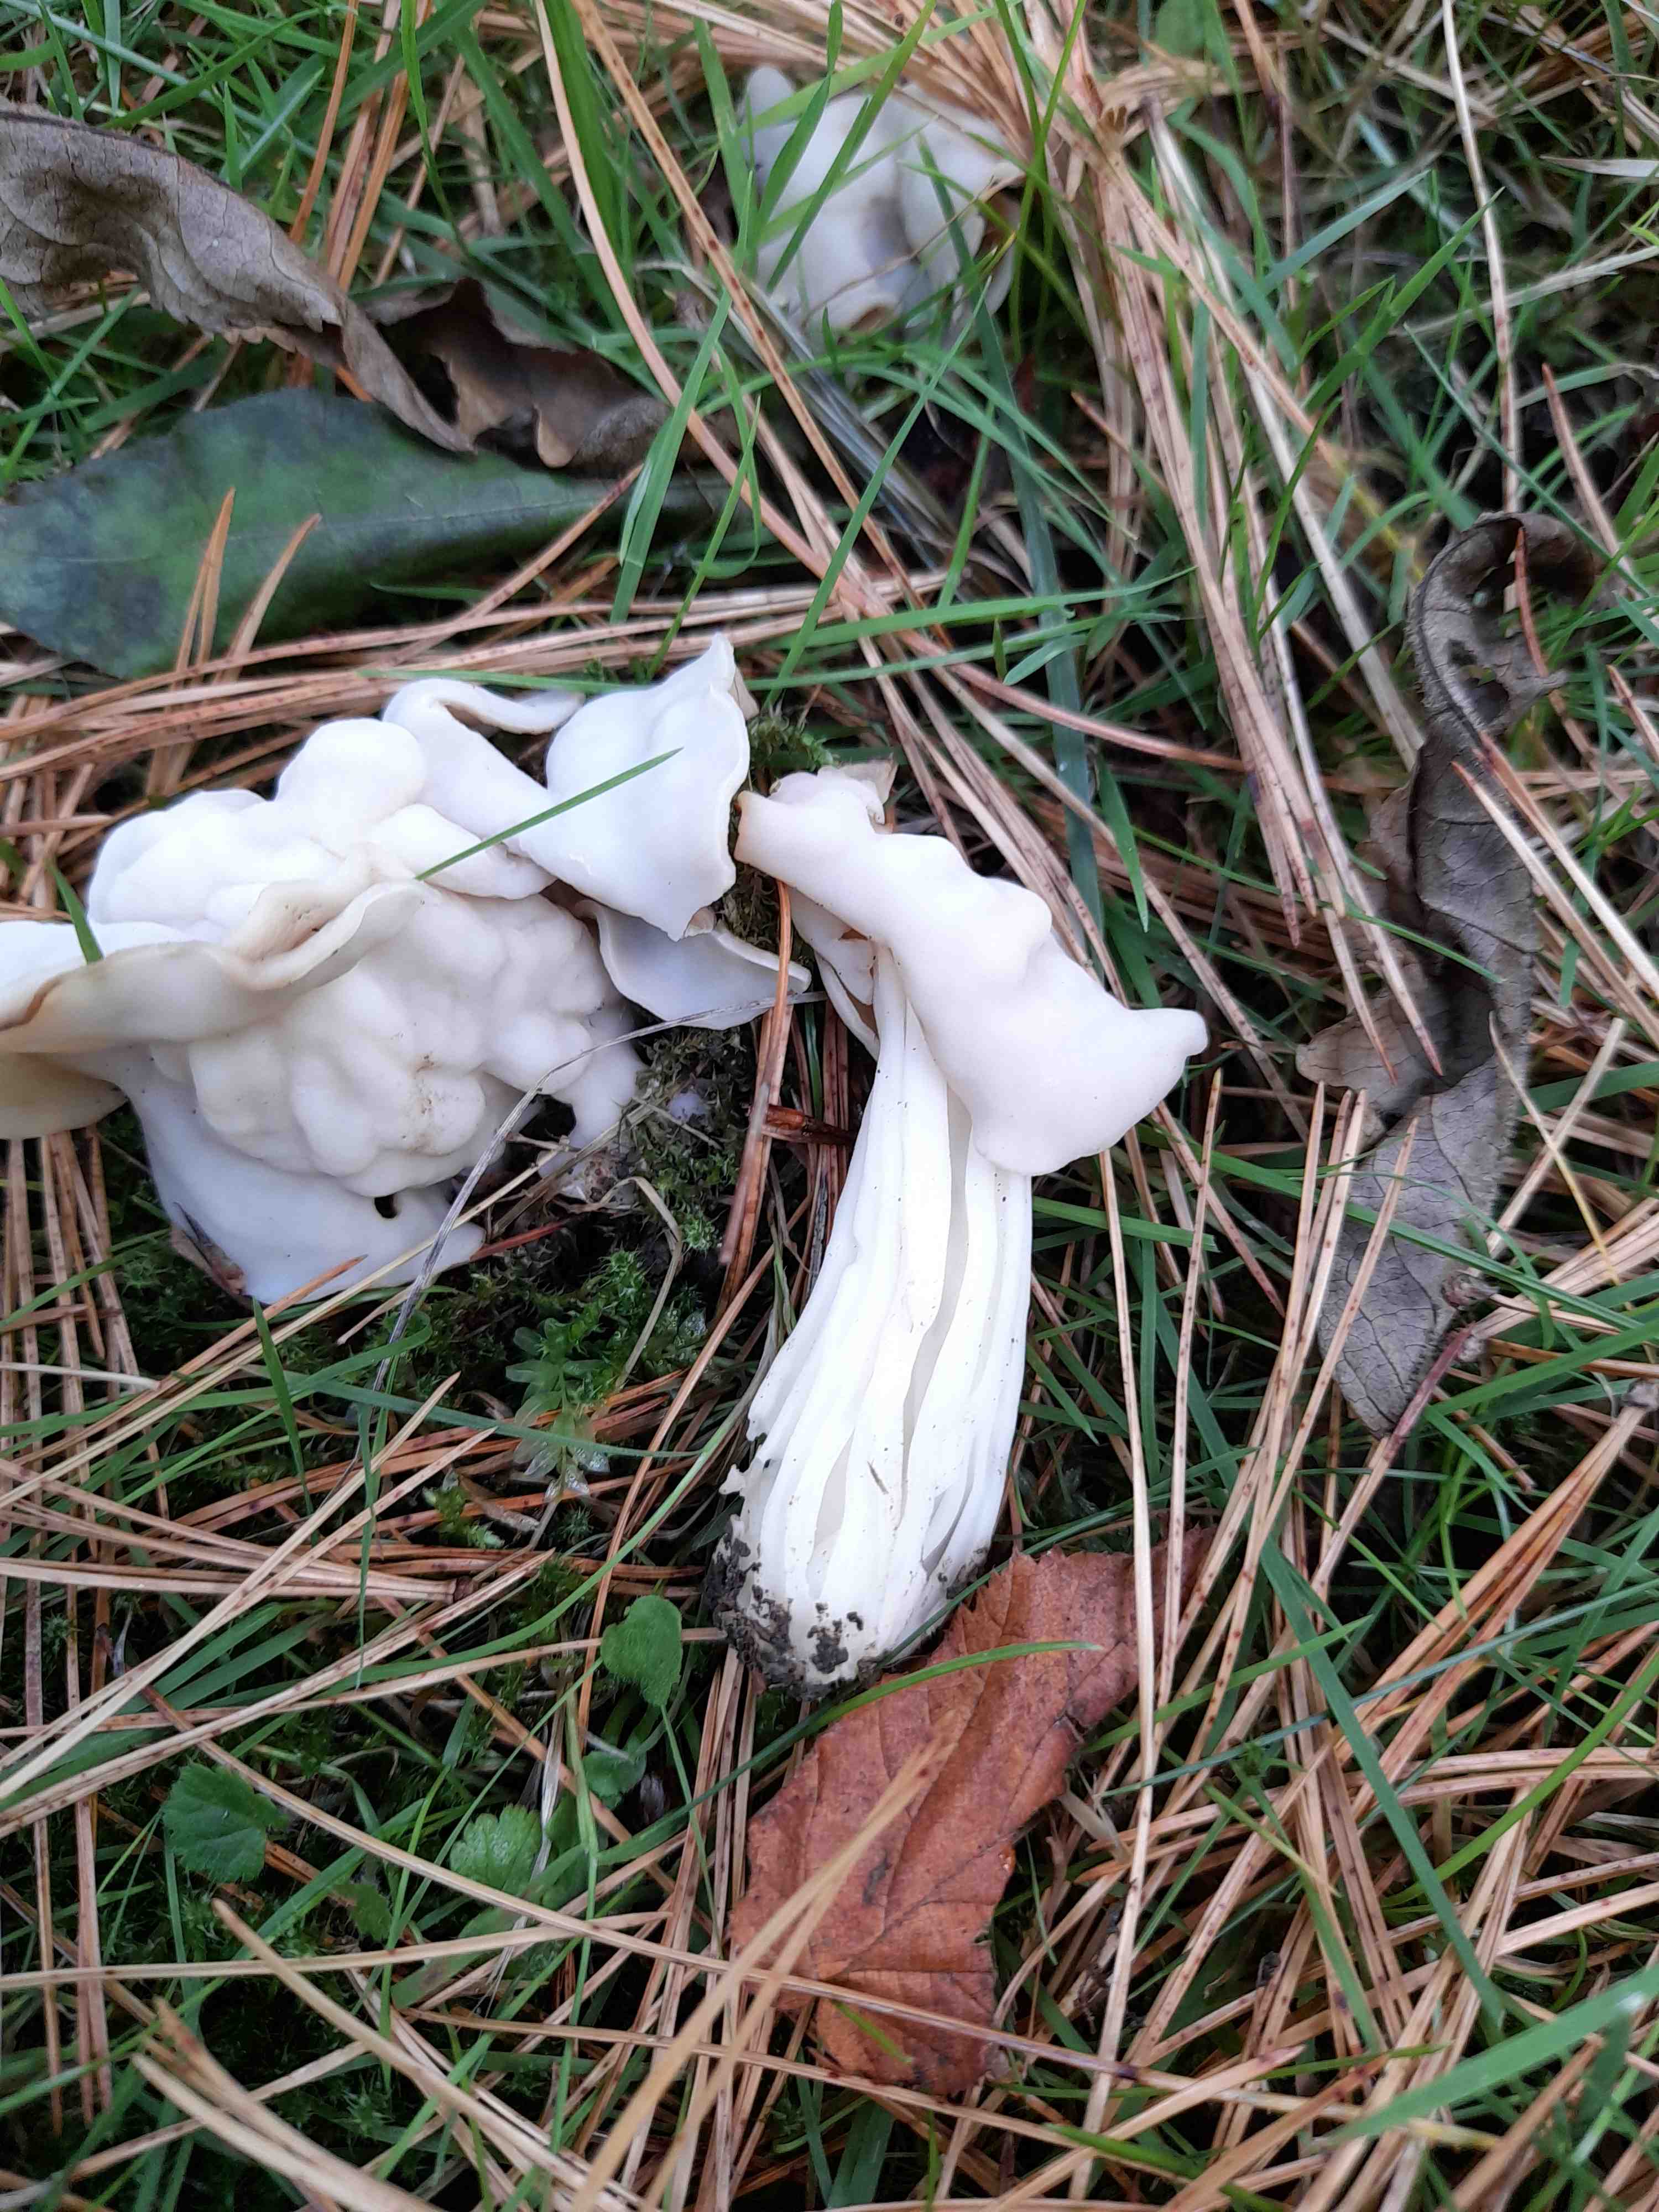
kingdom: Fungi
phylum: Ascomycota
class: Pezizomycetes
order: Pezizales
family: Helvellaceae
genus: Helvella
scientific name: Helvella crispa
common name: kruset foldhat
